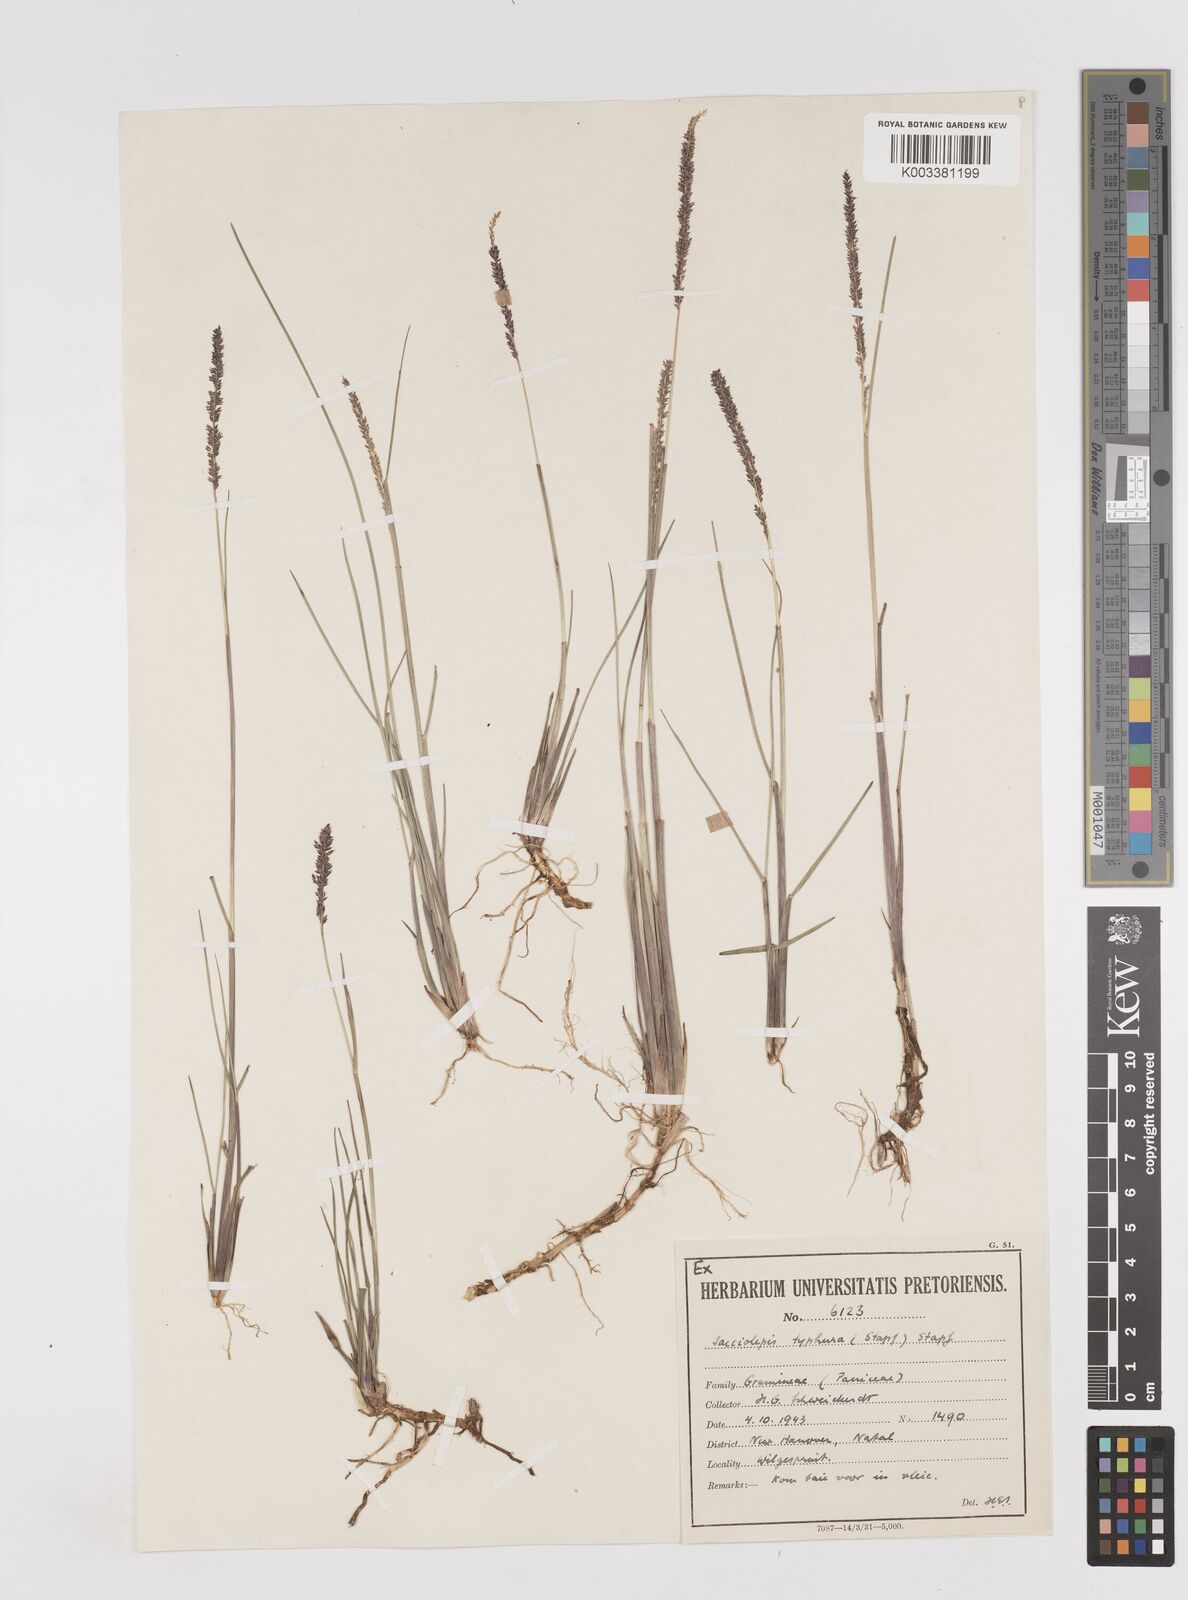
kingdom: Plantae
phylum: Tracheophyta
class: Liliopsida
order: Poales
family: Poaceae
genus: Sacciolepis
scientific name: Sacciolepis chevalieri
